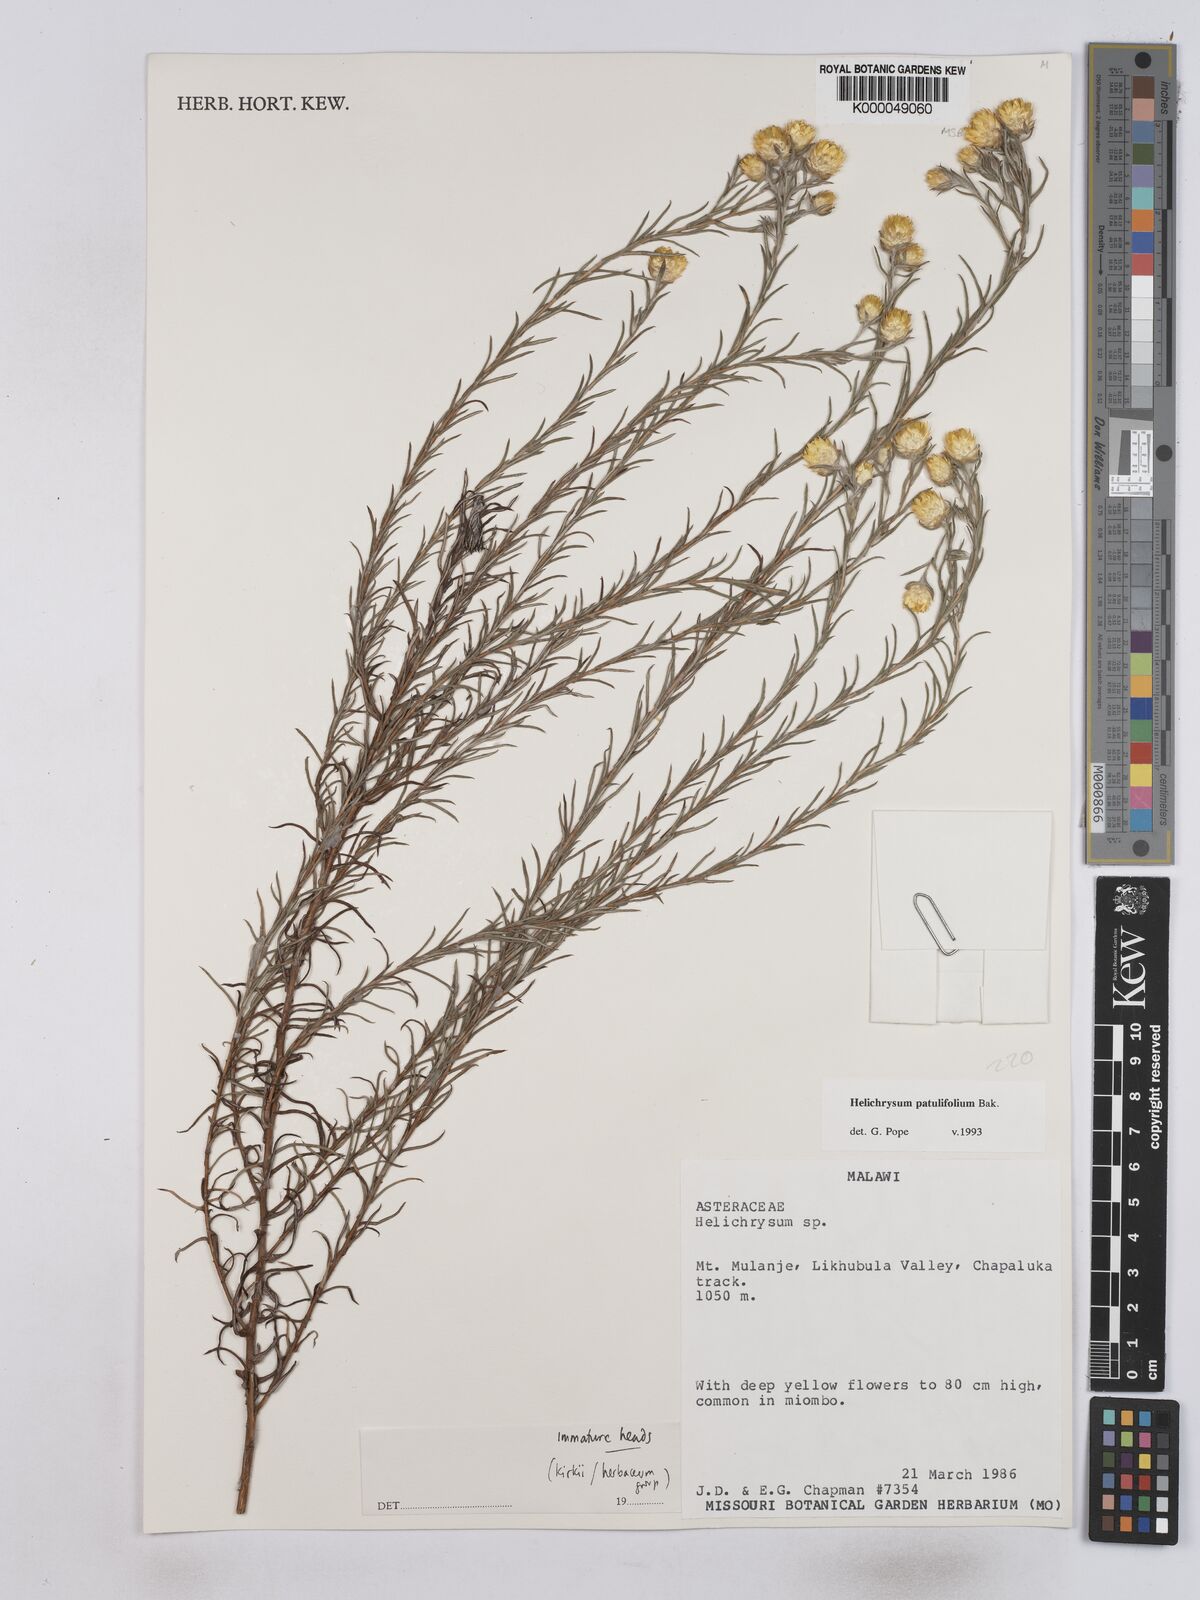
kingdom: Plantae
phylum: Tracheophyta
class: Magnoliopsida
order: Asterales
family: Asteraceae
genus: Helichrysum
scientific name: Helichrysum patulifolium
